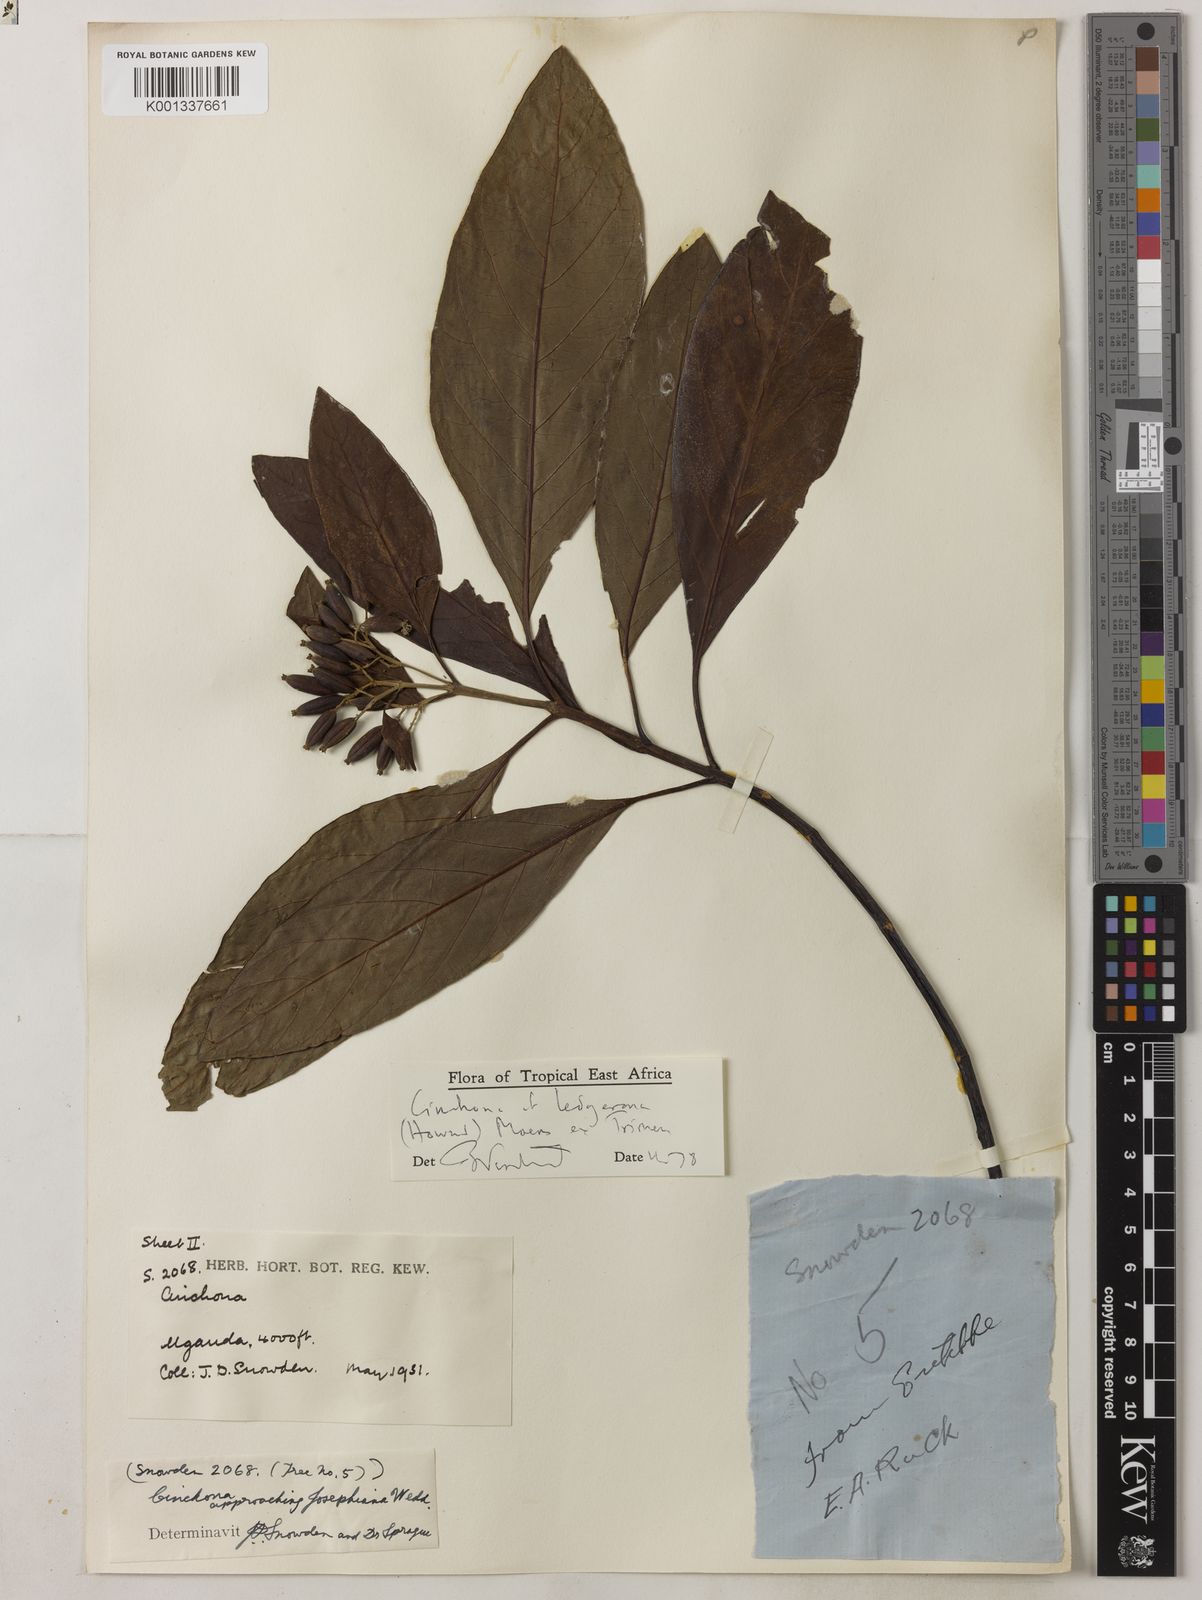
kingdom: Plantae
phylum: Tracheophyta
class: Magnoliopsida
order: Gentianales
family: Rubiaceae
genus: Cinchona
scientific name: Cinchona calisaya
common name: Ledgerbark
